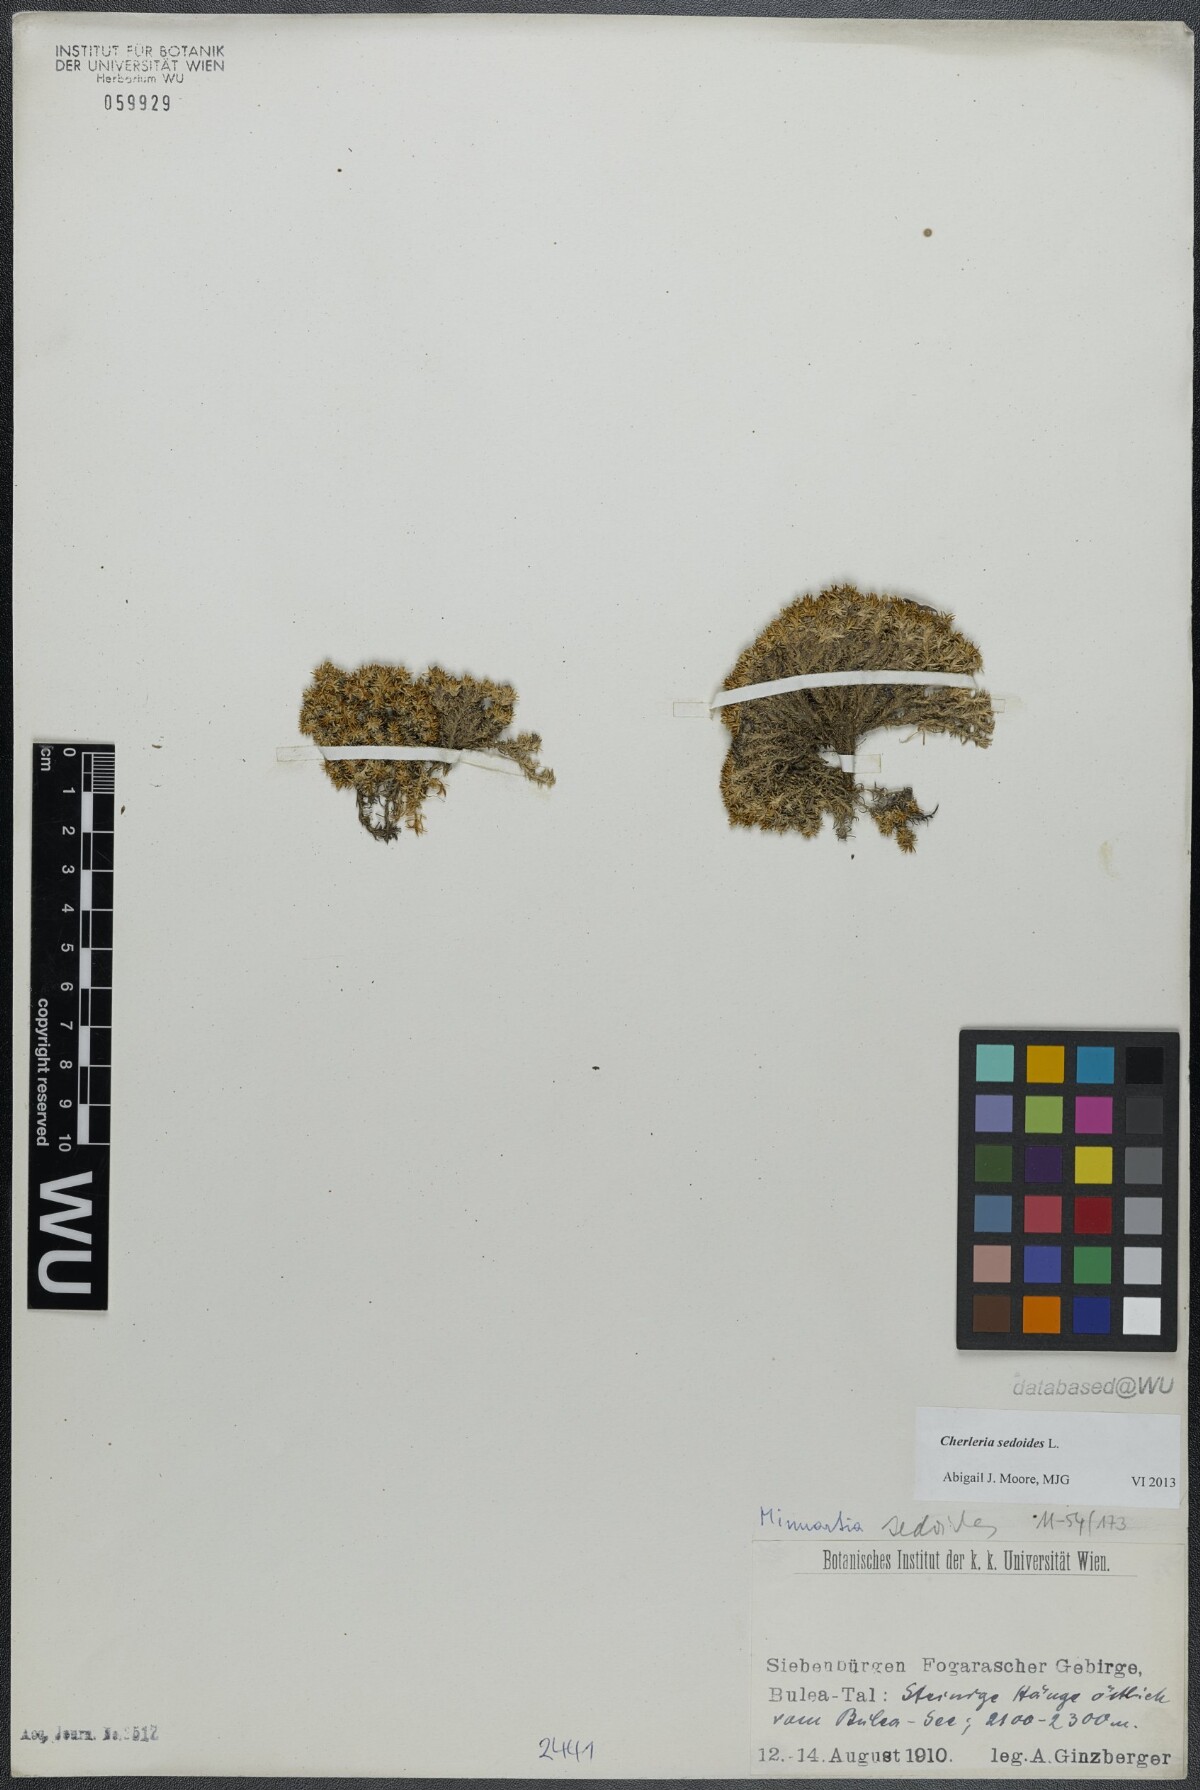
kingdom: Plantae
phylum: Tracheophyta
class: Magnoliopsida
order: Caryophyllales
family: Caryophyllaceae
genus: Cherleria
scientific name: Cherleria sedoides
